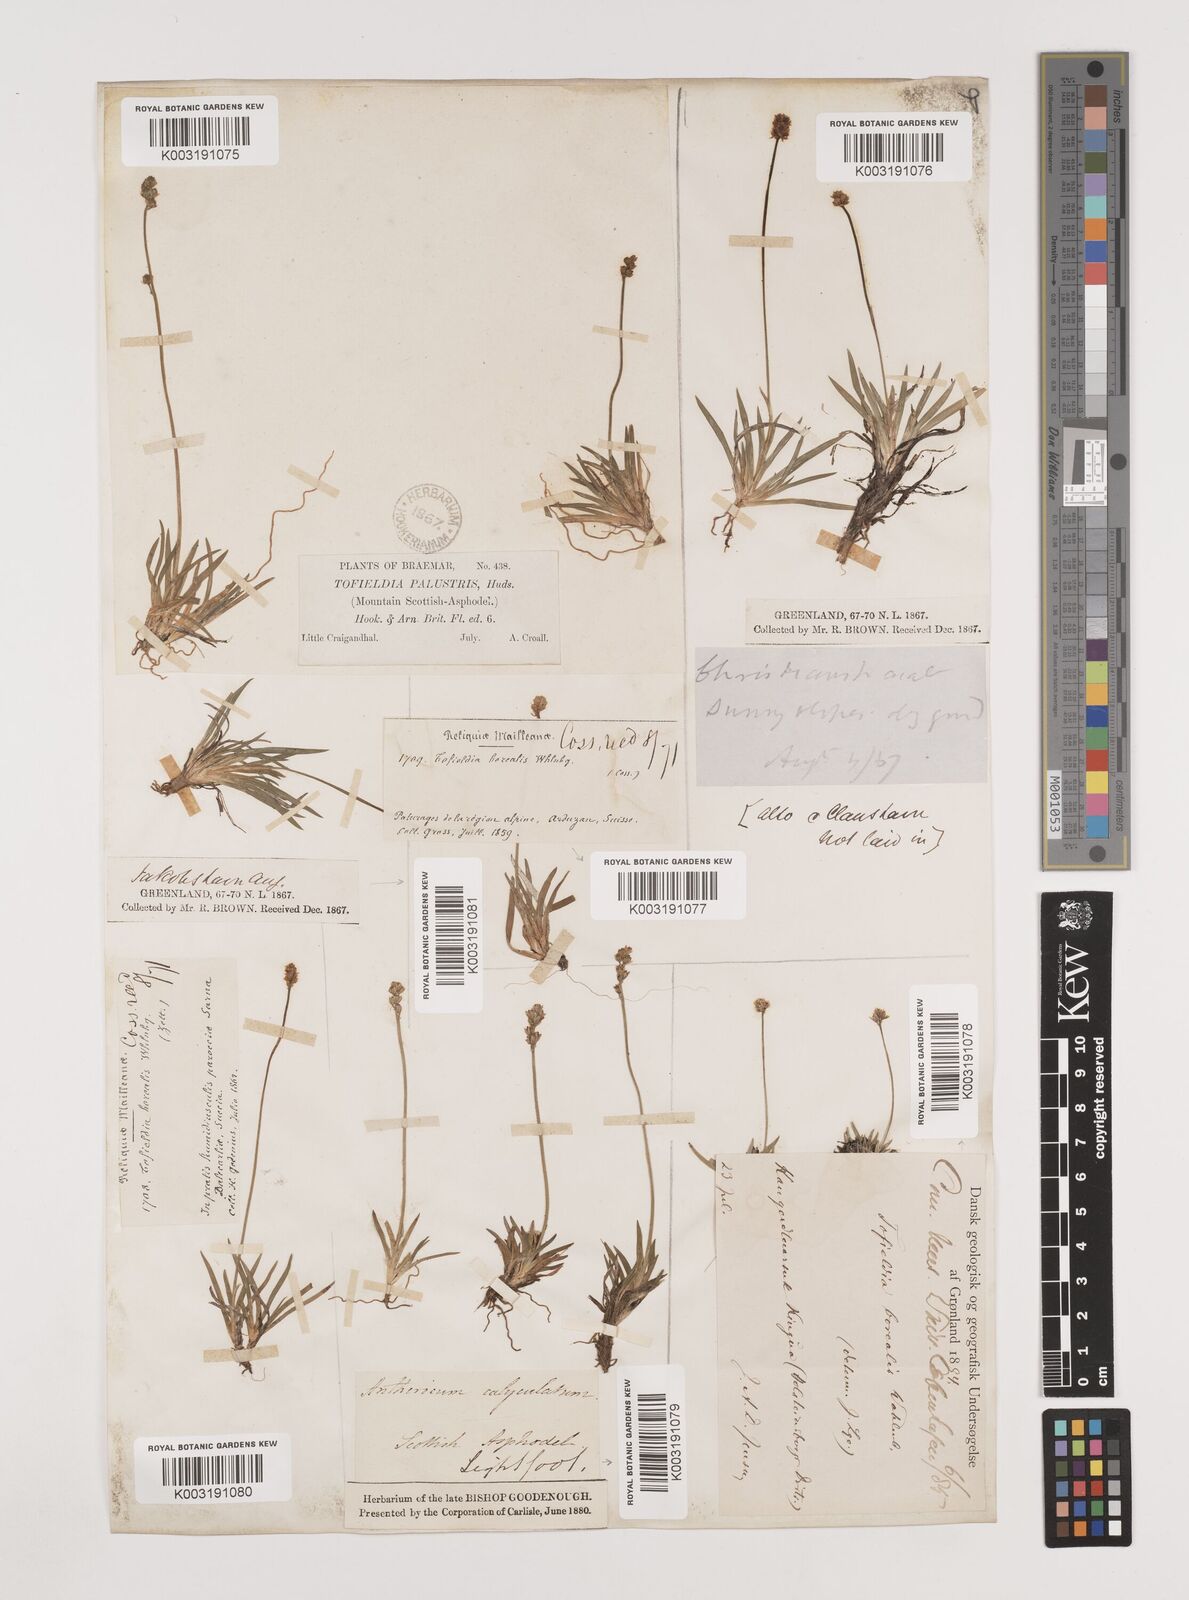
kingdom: Plantae
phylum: Tracheophyta
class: Liliopsida
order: Alismatales
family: Tofieldiaceae
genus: Tofieldia
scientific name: Tofieldia pusilla
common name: Scottish false asphodel
